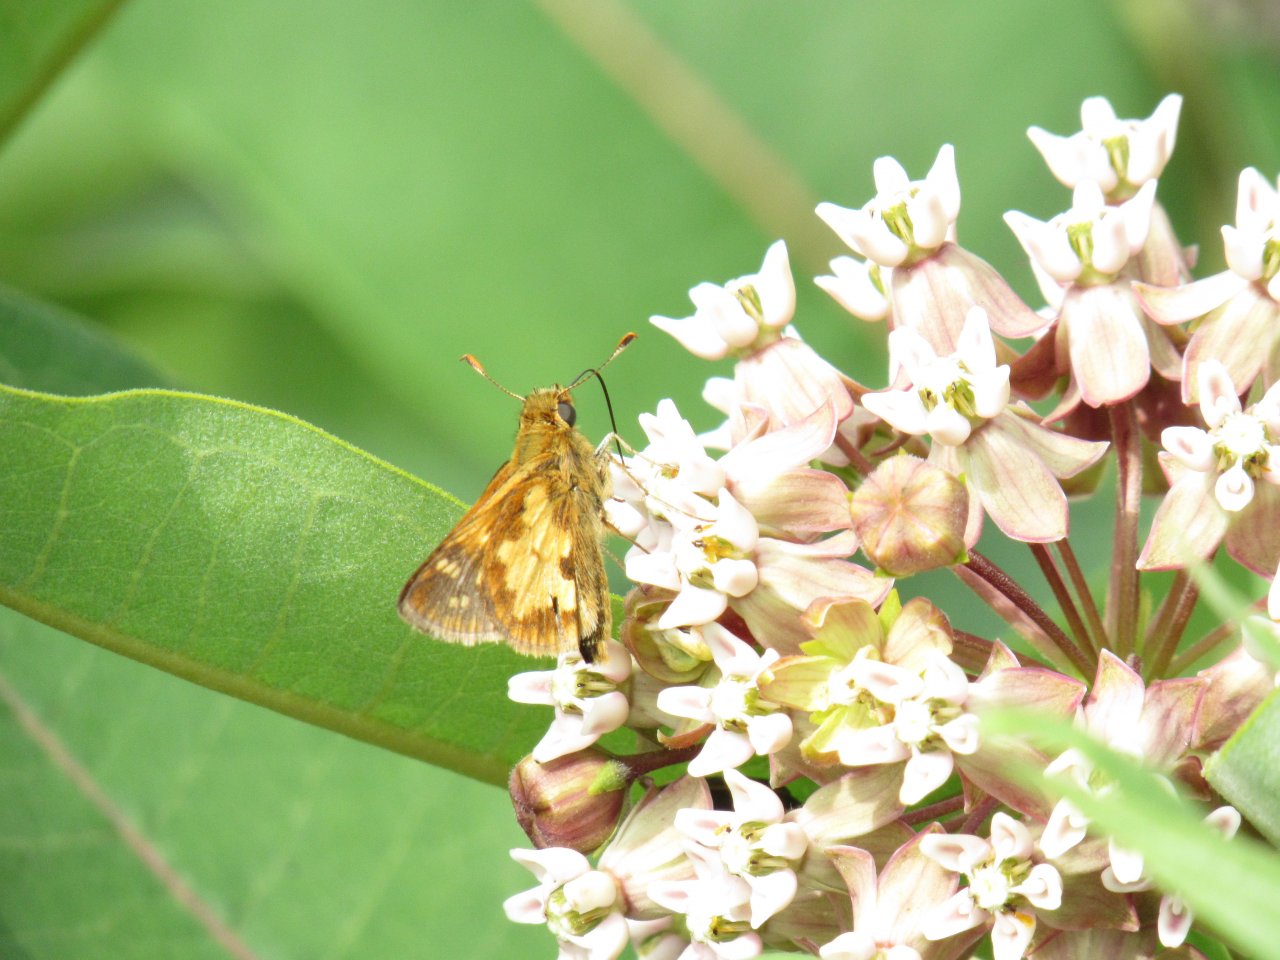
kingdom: Animalia
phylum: Arthropoda
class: Insecta
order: Lepidoptera
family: Hesperiidae
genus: Polites
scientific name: Polites coras
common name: Peck's Skipper
